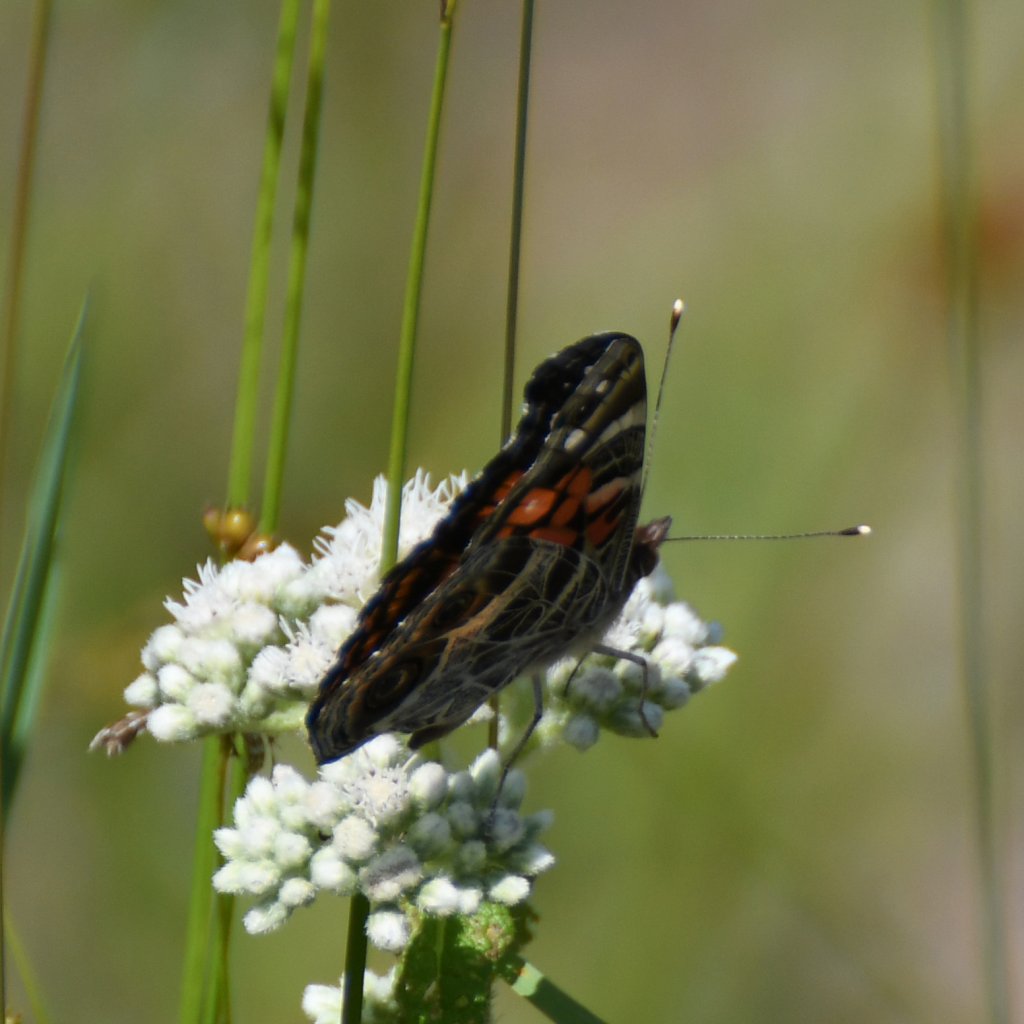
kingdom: Animalia
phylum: Arthropoda
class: Insecta
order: Lepidoptera
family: Nymphalidae
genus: Vanessa
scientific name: Vanessa virginiensis
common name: American Lady
